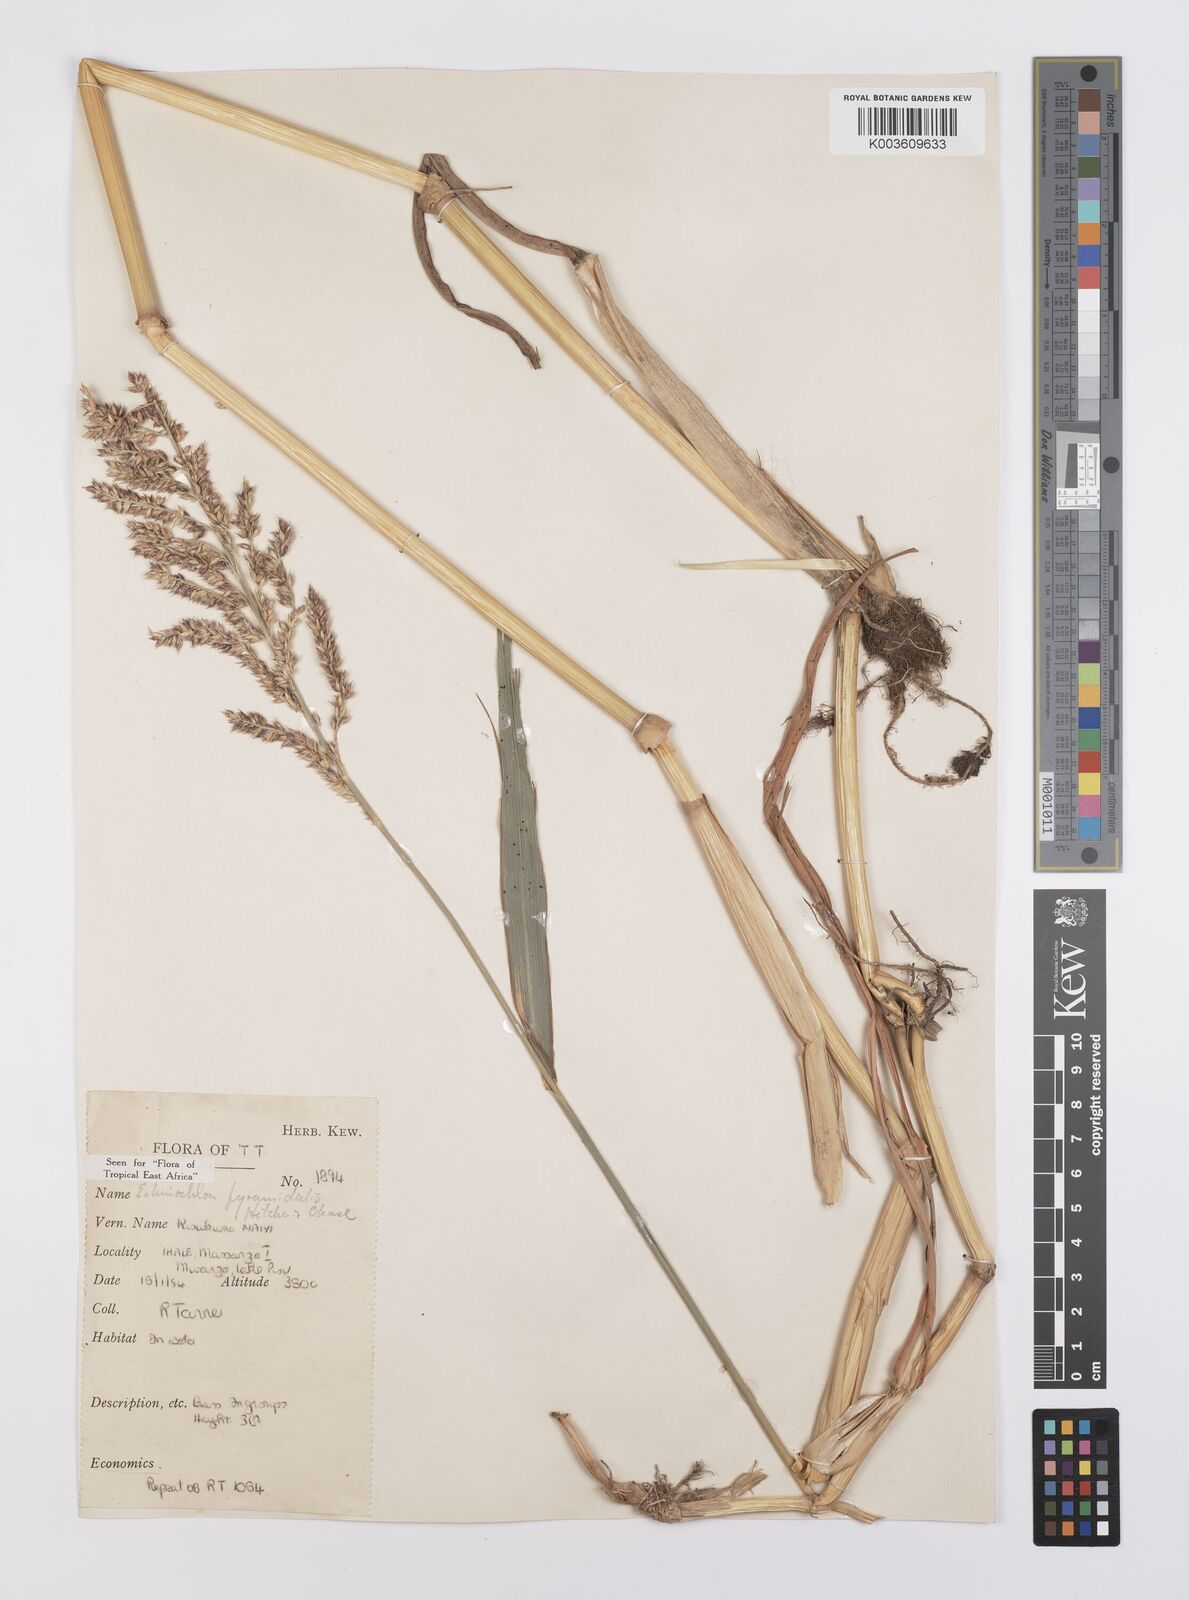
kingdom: Plantae
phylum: Tracheophyta
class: Liliopsida
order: Poales
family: Poaceae
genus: Echinochloa
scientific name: Echinochloa pyramidalis
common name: Antelope grass
